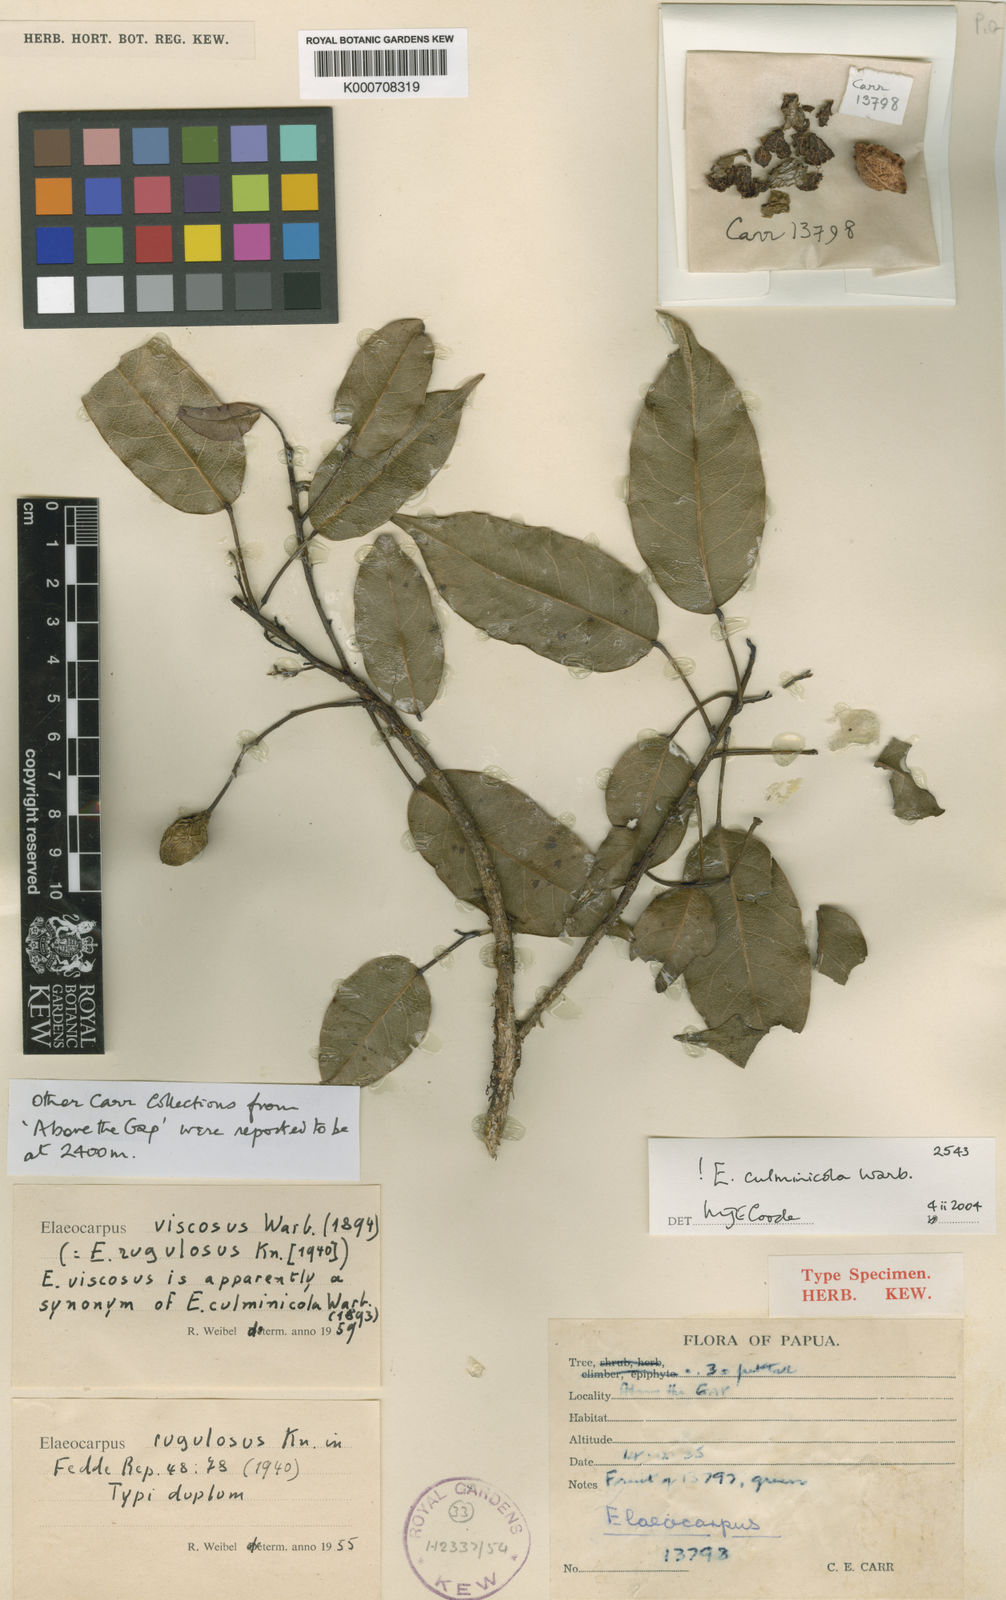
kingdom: Plantae
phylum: Tracheophyta
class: Magnoliopsida
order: Oxalidales
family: Elaeocarpaceae
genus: Elaeocarpus
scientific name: Elaeocarpus culminicola
